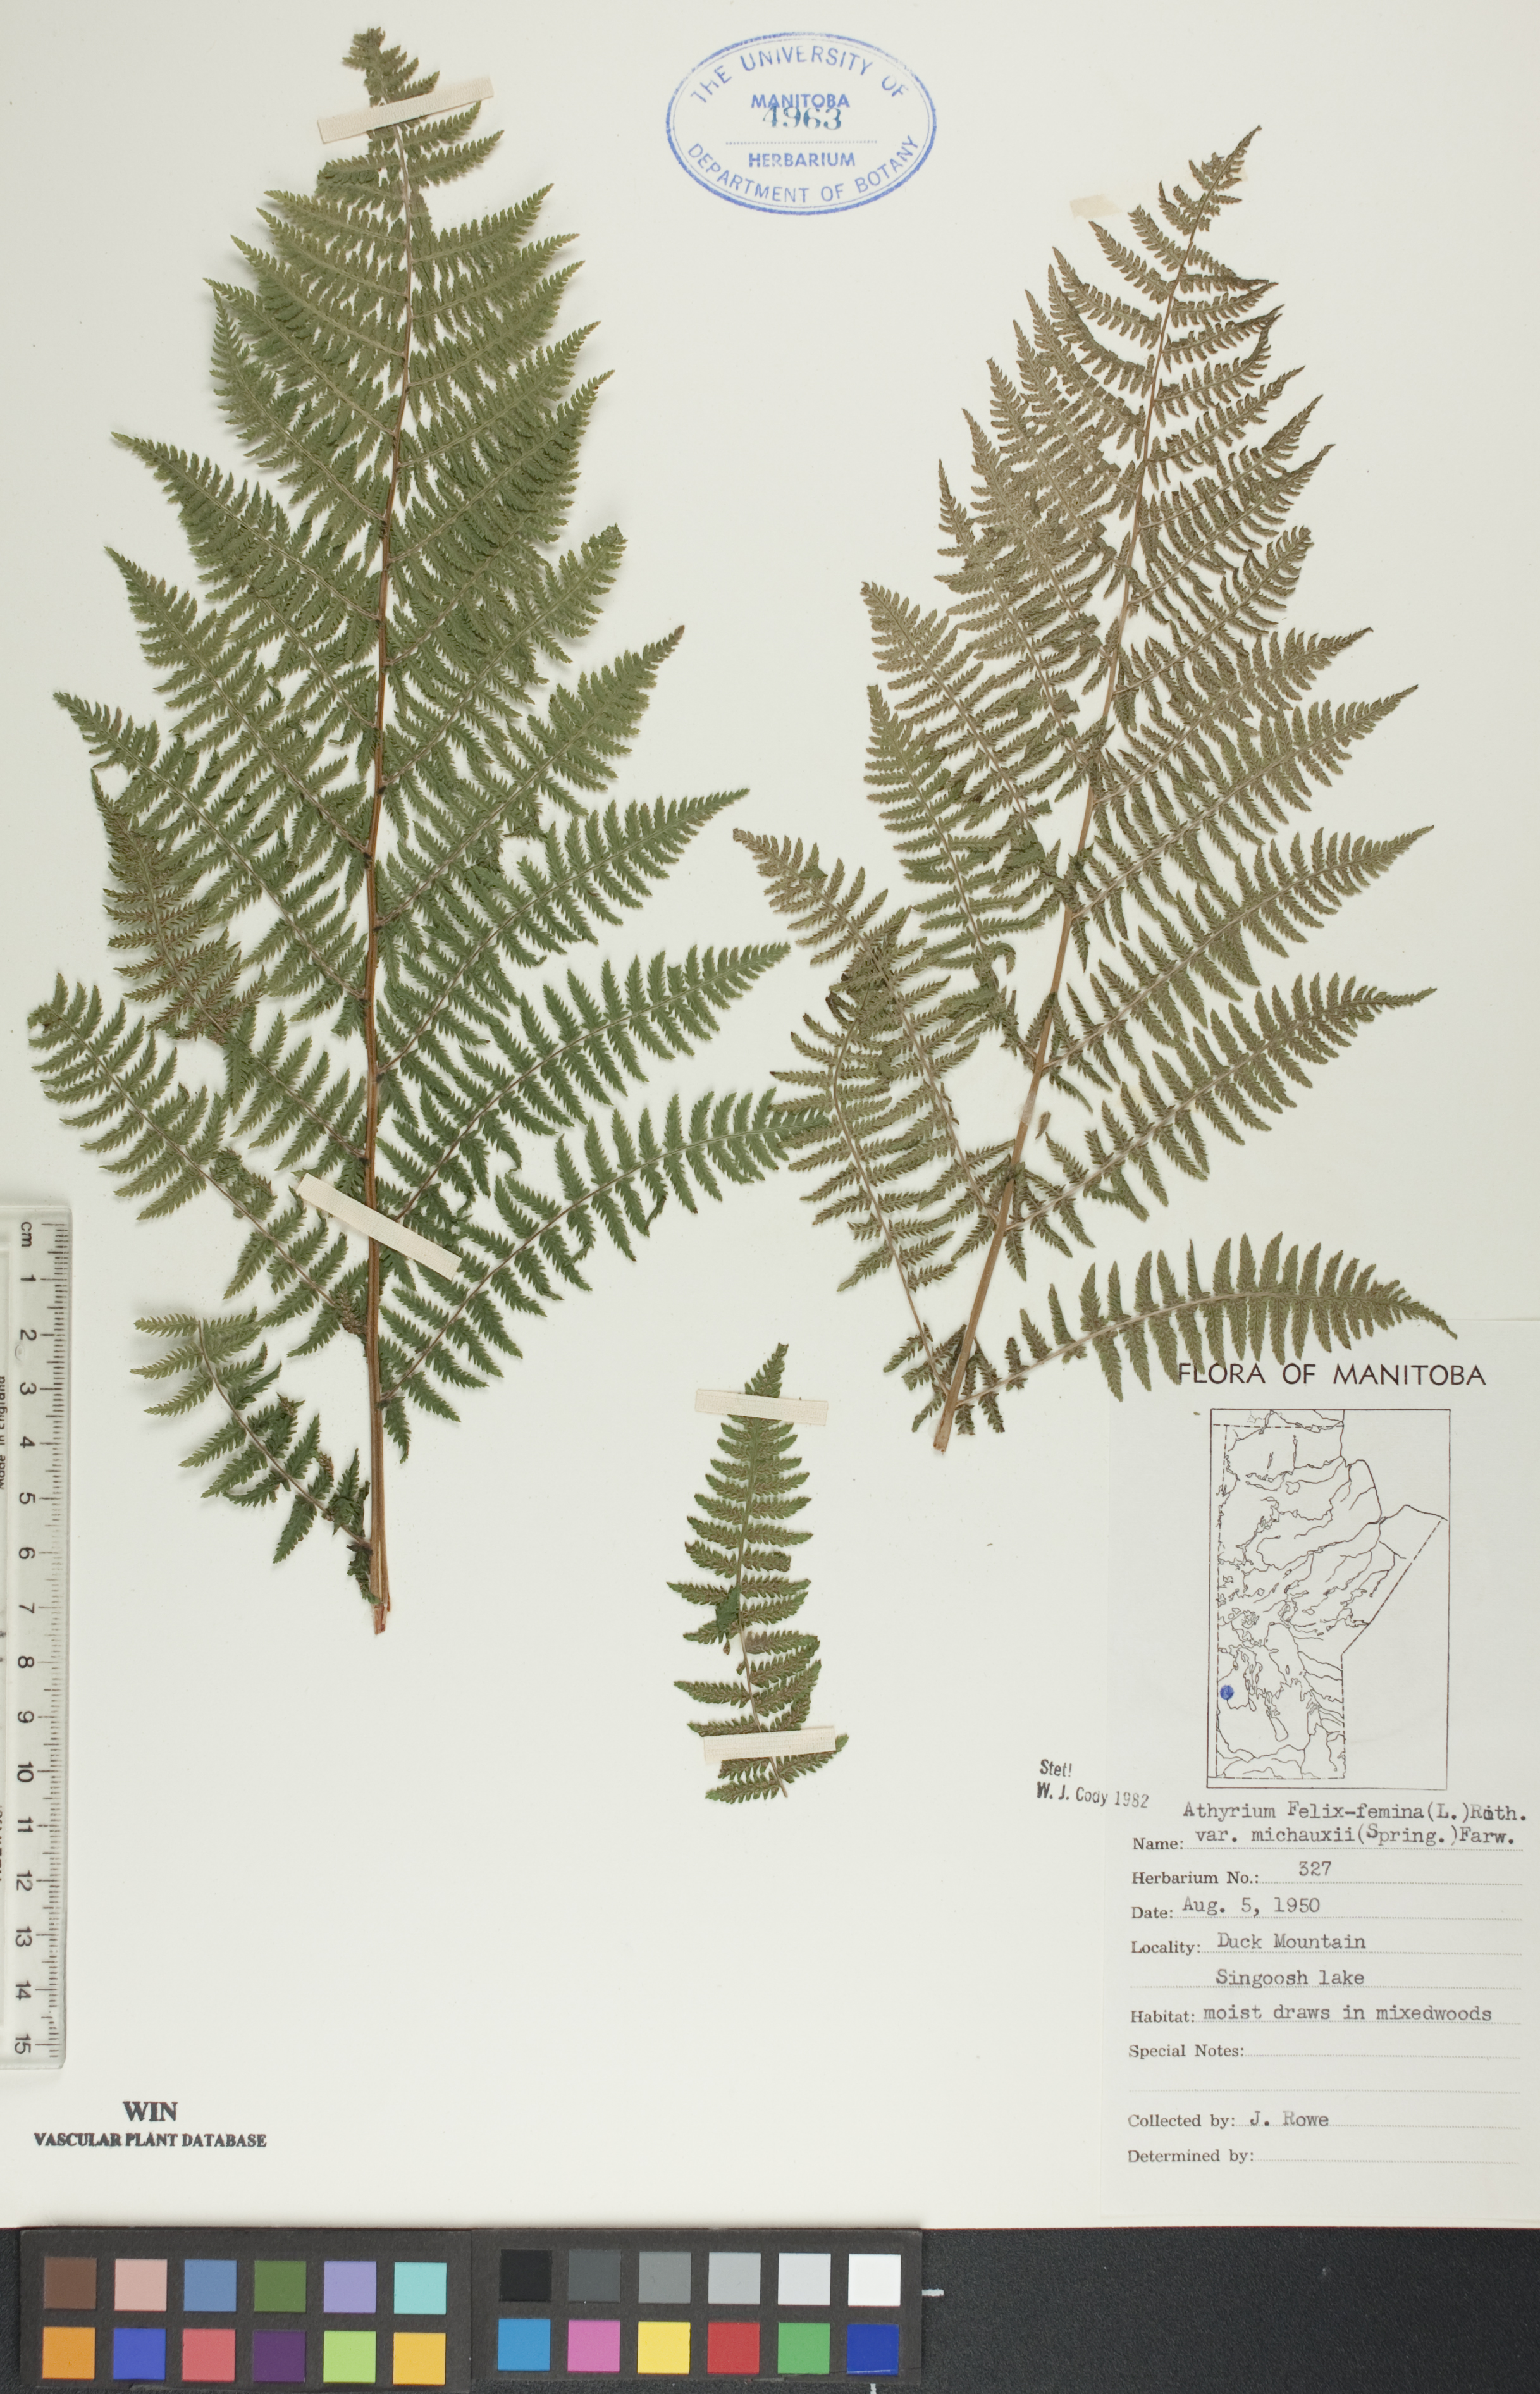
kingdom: Plantae
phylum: Tracheophyta
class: Polypodiopsida
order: Polypodiales
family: Athyriaceae
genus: Athyrium
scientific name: Athyrium angustum
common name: Northern lady fern
